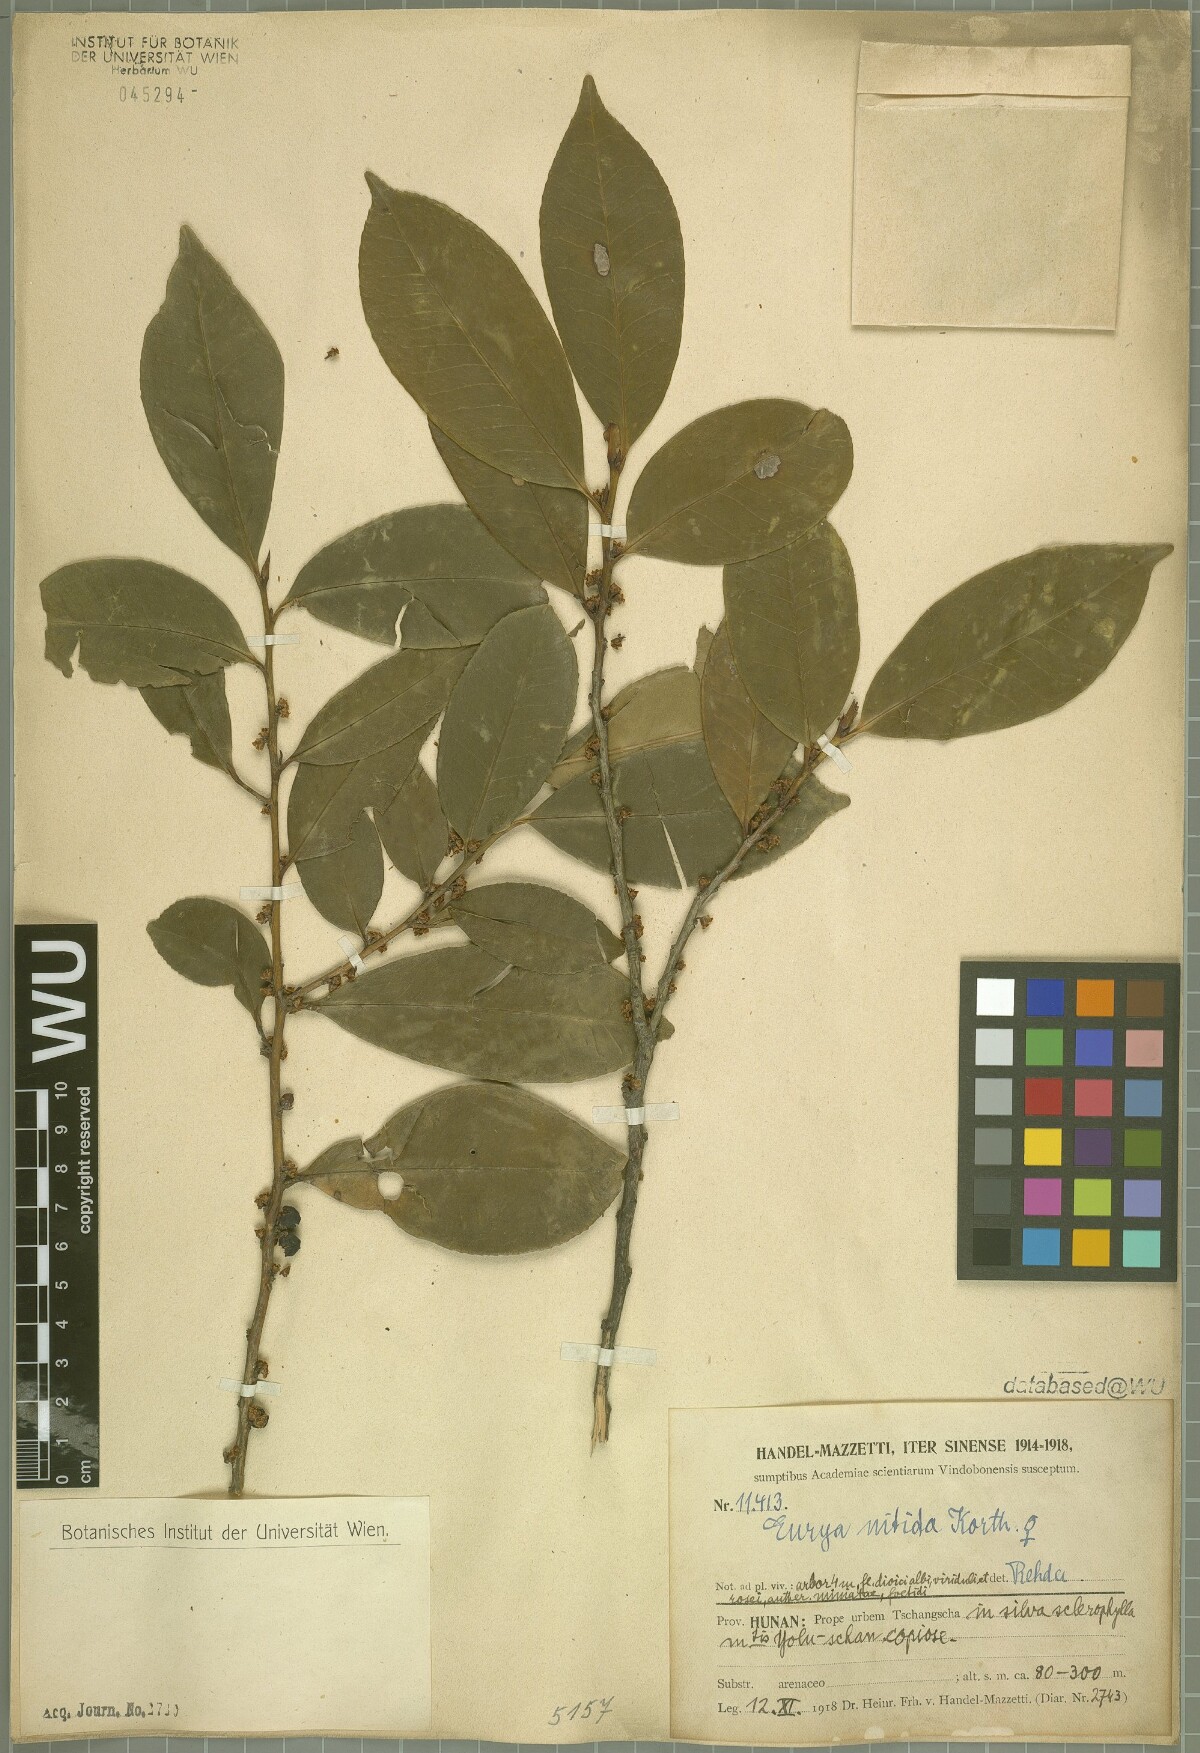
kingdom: Plantae
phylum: Tracheophyta
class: Magnoliopsida
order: Ericales
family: Pentaphylacaceae
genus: Eurya
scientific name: Eurya nitida
